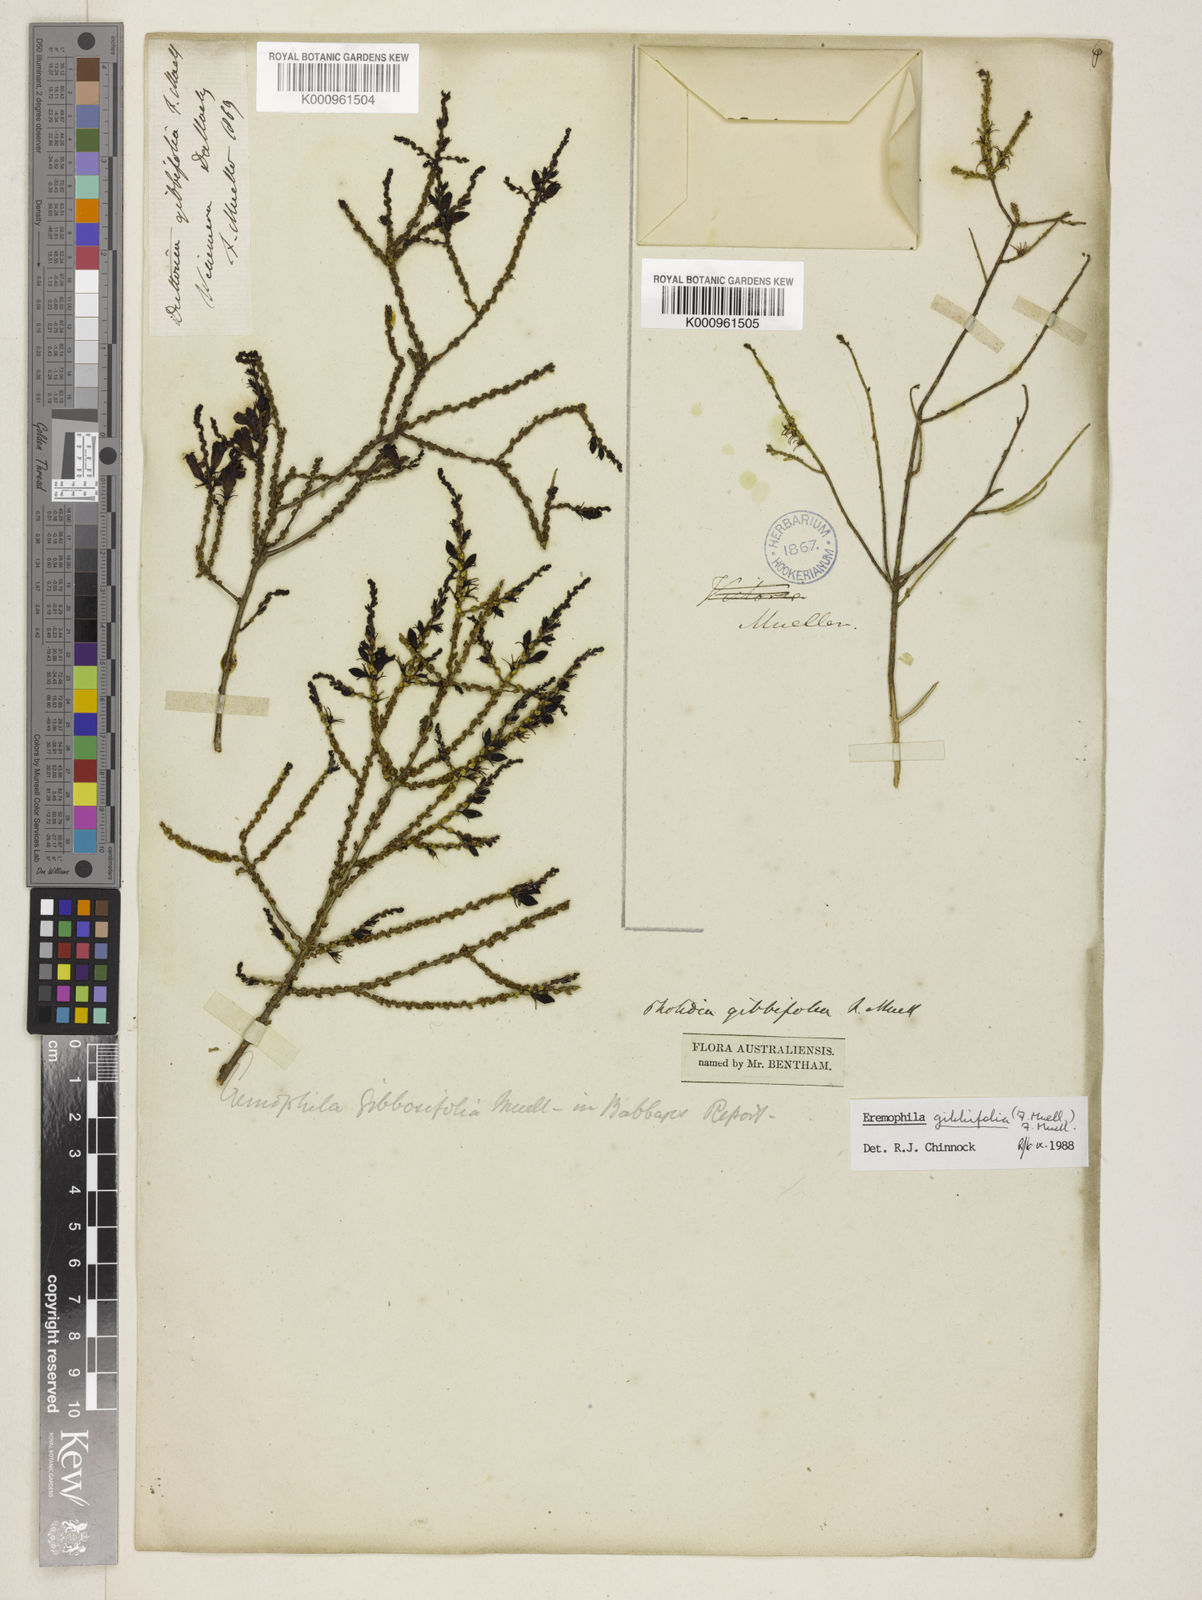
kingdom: Plantae
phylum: Tracheophyta
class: Magnoliopsida
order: Lamiales
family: Scrophulariaceae
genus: Eremophila
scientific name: Eremophila gibbifolia
